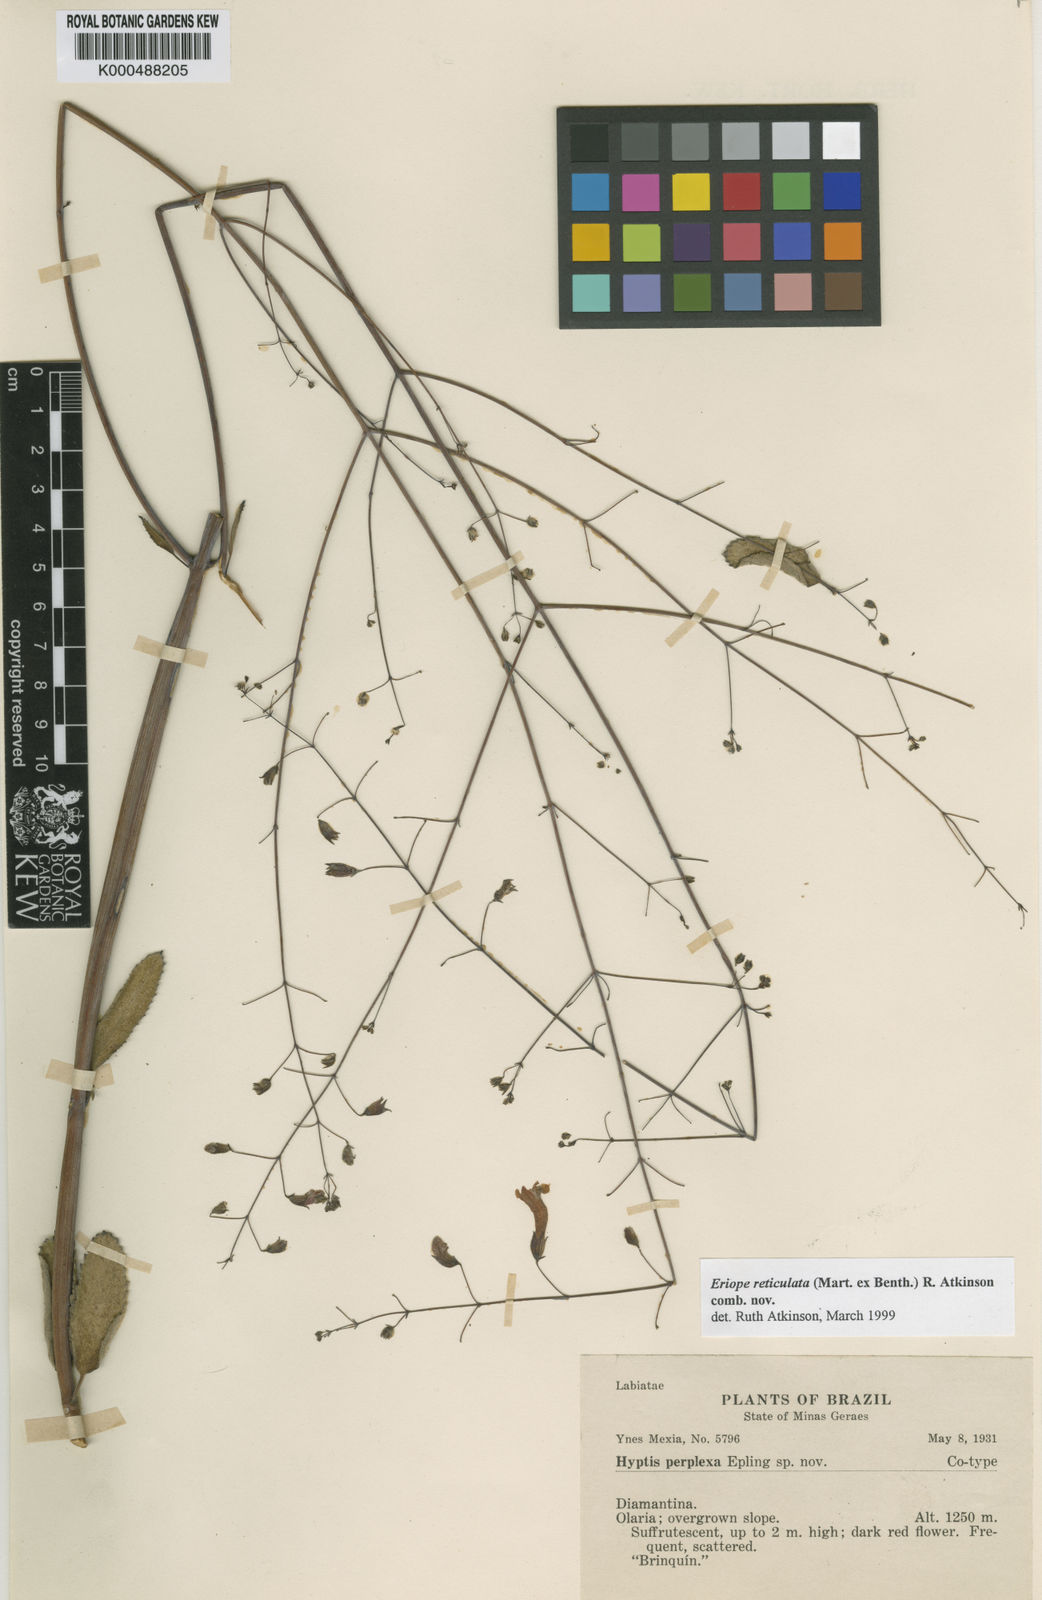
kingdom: Plantae
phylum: Tracheophyta
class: Magnoliopsida
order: Lamiales
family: Lamiaceae
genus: Hypenia
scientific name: Hypenia reticulata
